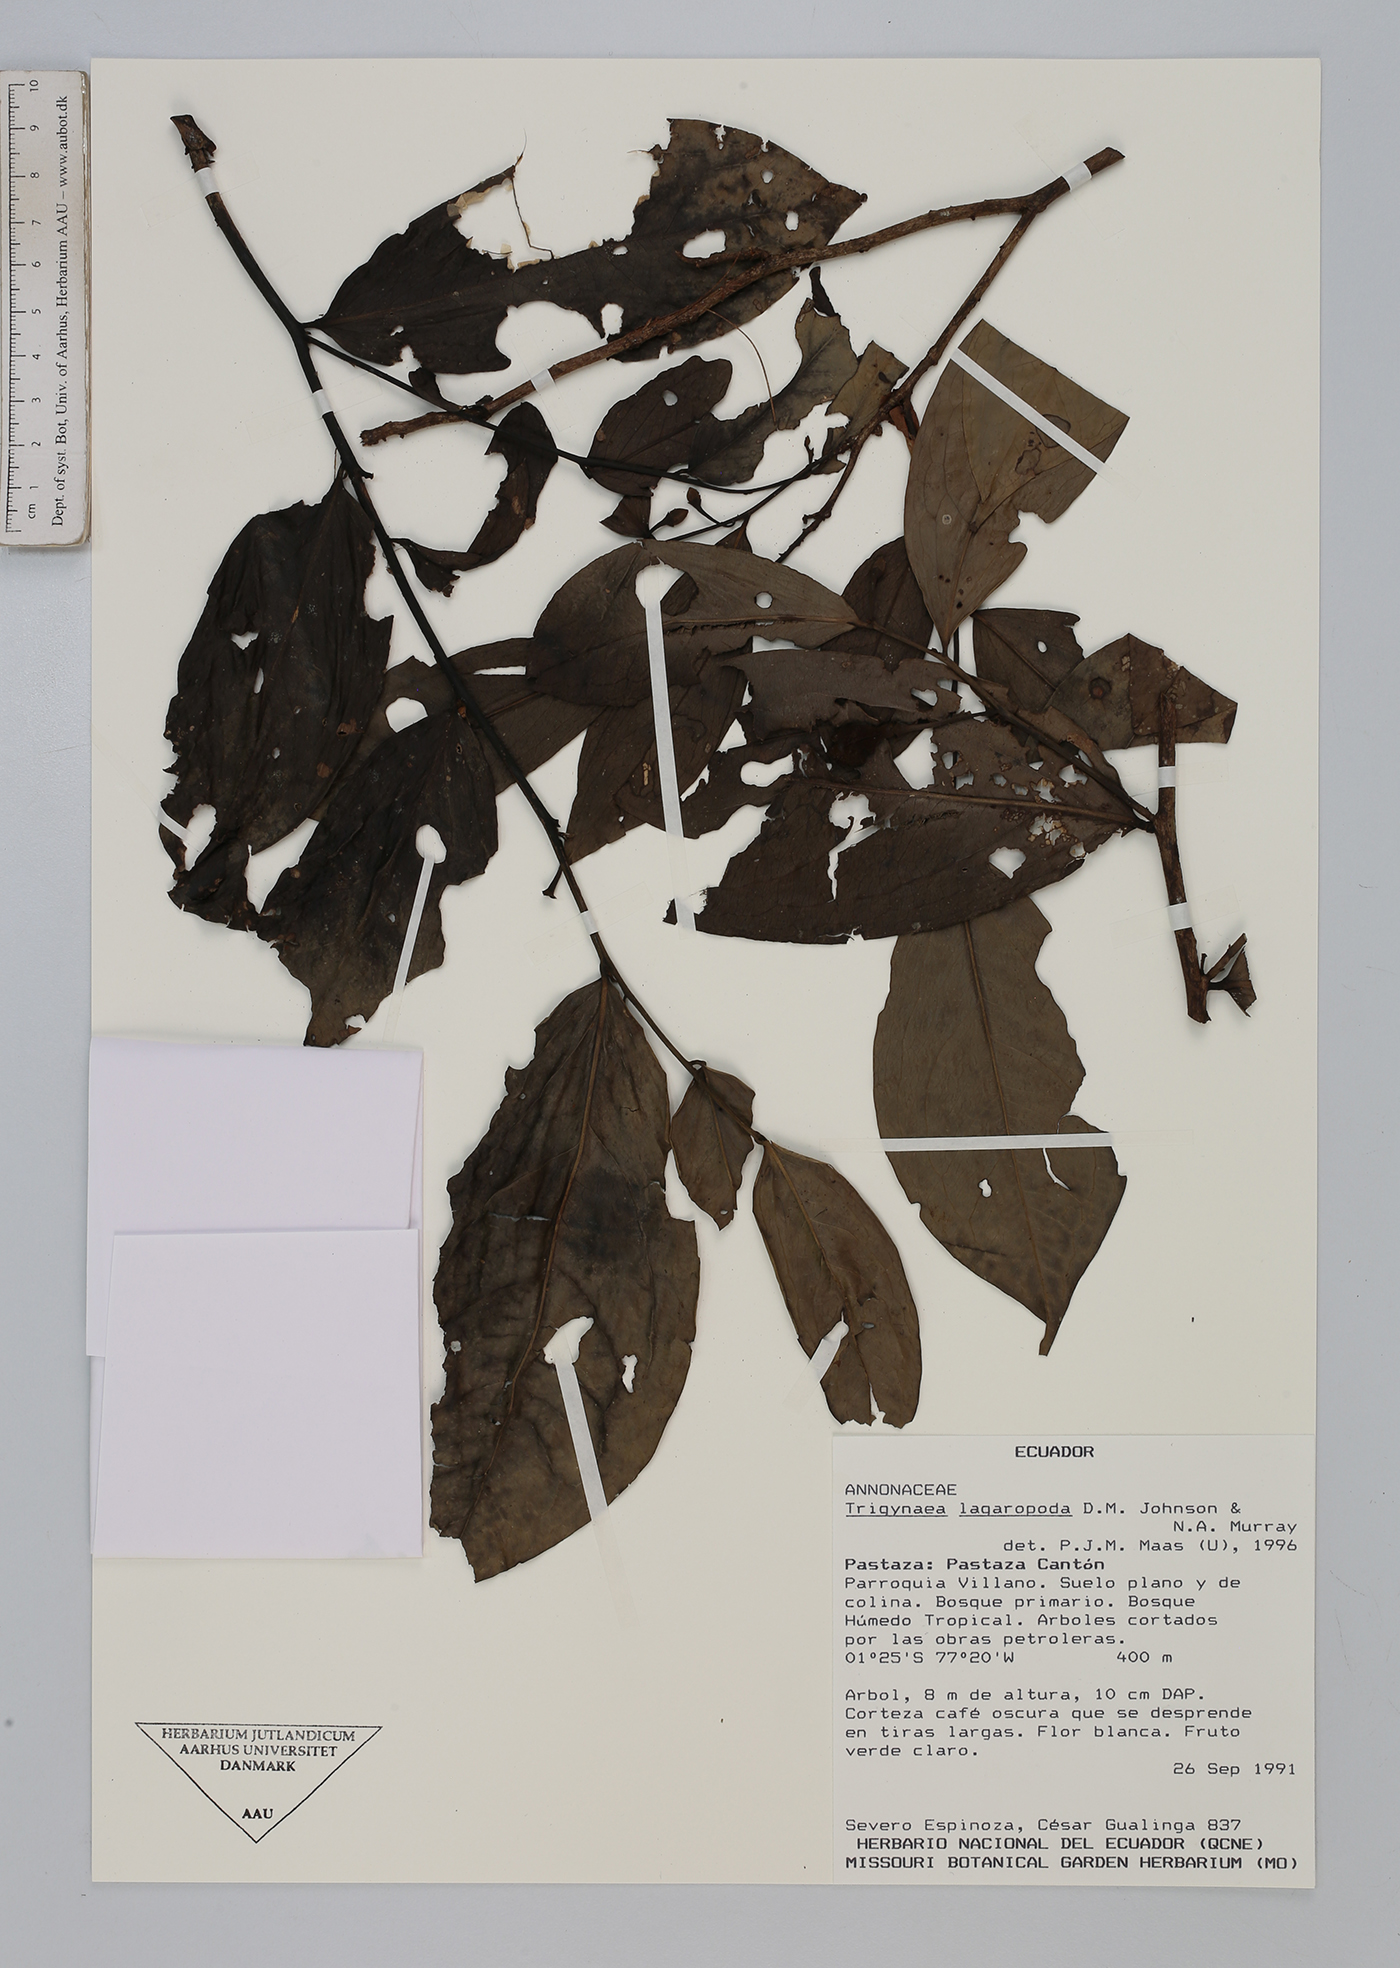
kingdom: Plantae
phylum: Tracheophyta
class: Magnoliopsida
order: Magnoliales
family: Annonaceae
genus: Trigynaea
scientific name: Trigynaea lagaropoda
